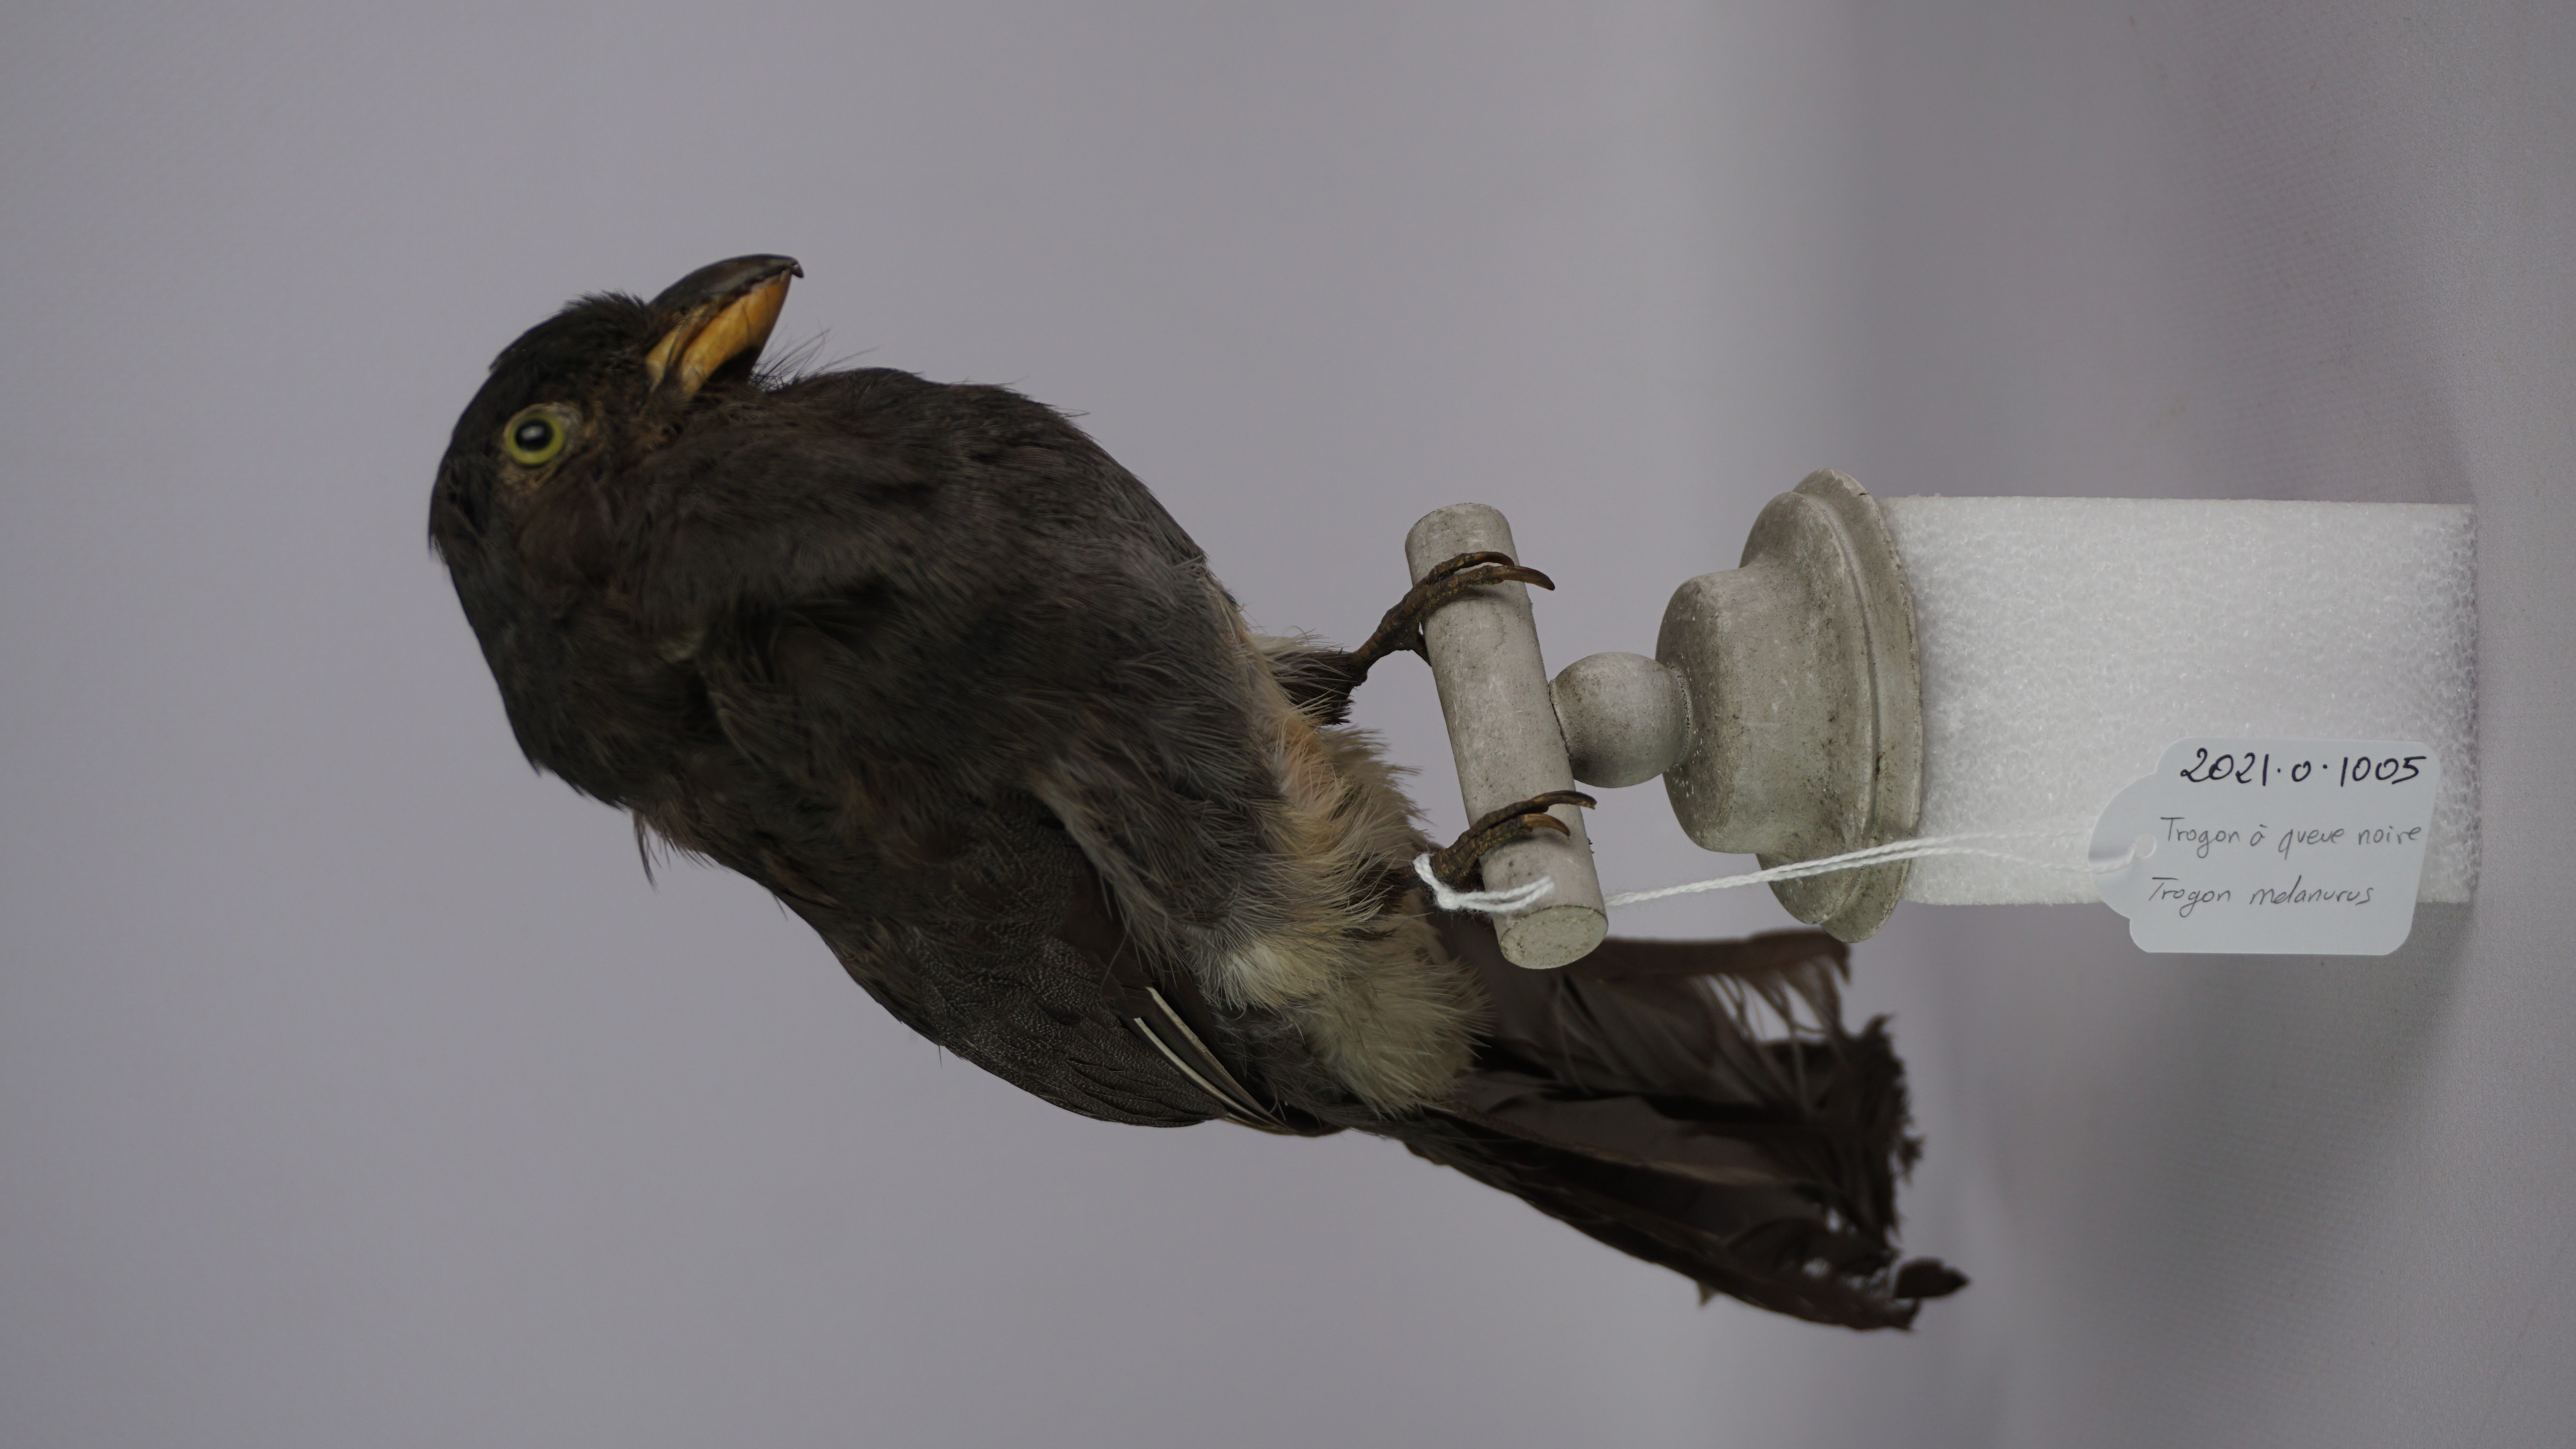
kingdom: Animalia
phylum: Chordata
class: Aves
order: Trogoniformes
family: Trogonidae
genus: Trogon
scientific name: Trogon melanurus
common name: Black-tailed trogon
